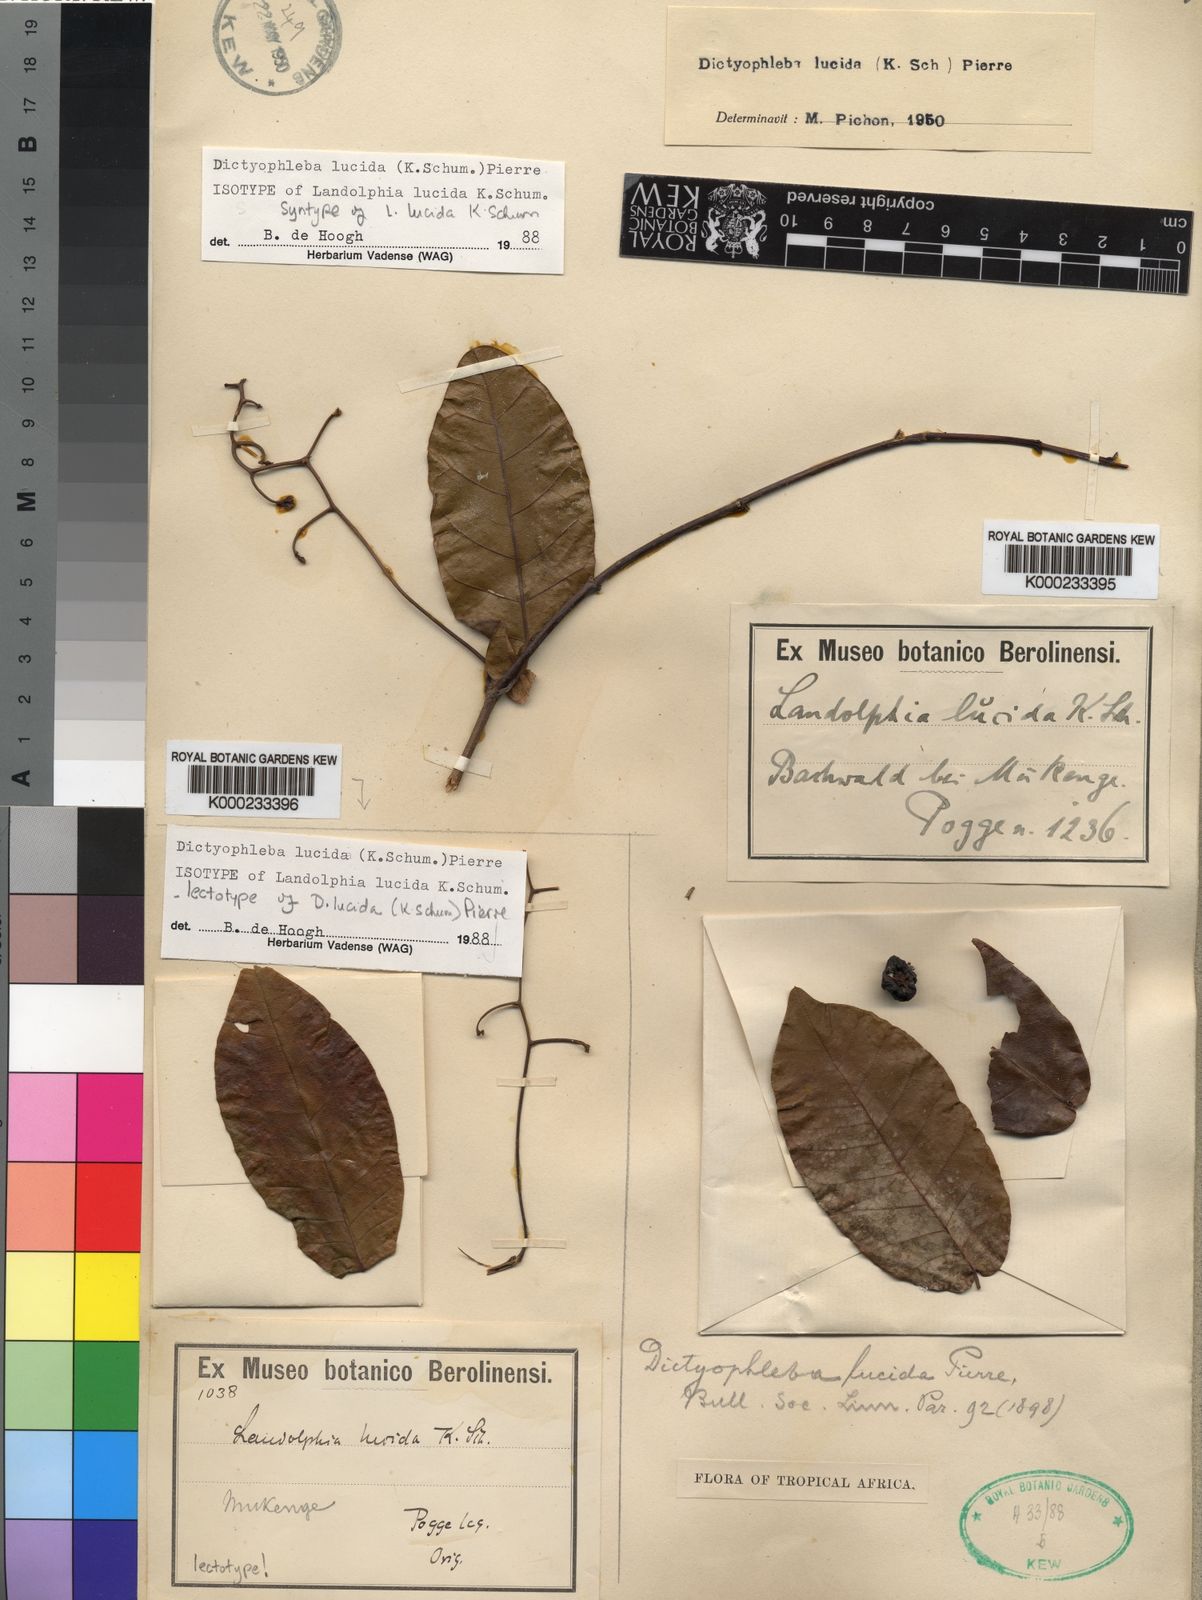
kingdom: Plantae
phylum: Tracheophyta
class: Magnoliopsida
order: Gentianales
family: Apocynaceae
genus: Dictyophleba
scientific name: Dictyophleba lucida
